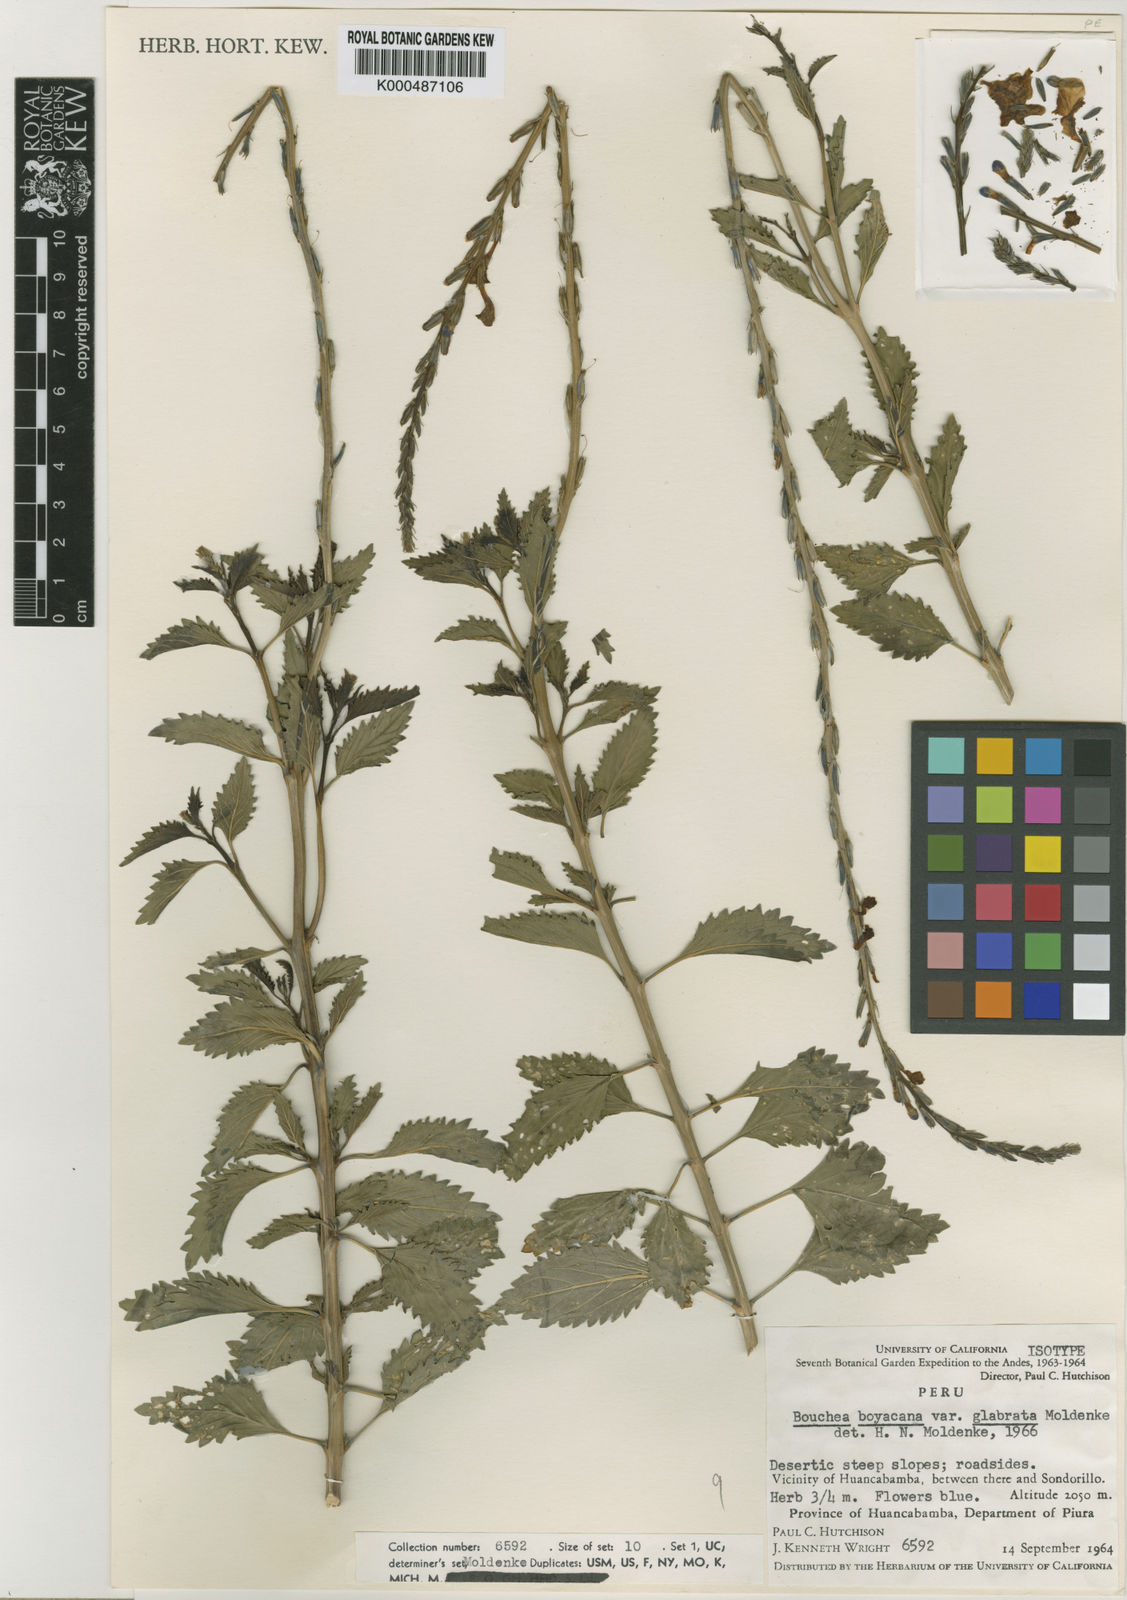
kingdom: Plantae
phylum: Tracheophyta
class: Magnoliopsida
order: Lamiales
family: Verbenaceae
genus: Bouchea
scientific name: Bouchea
